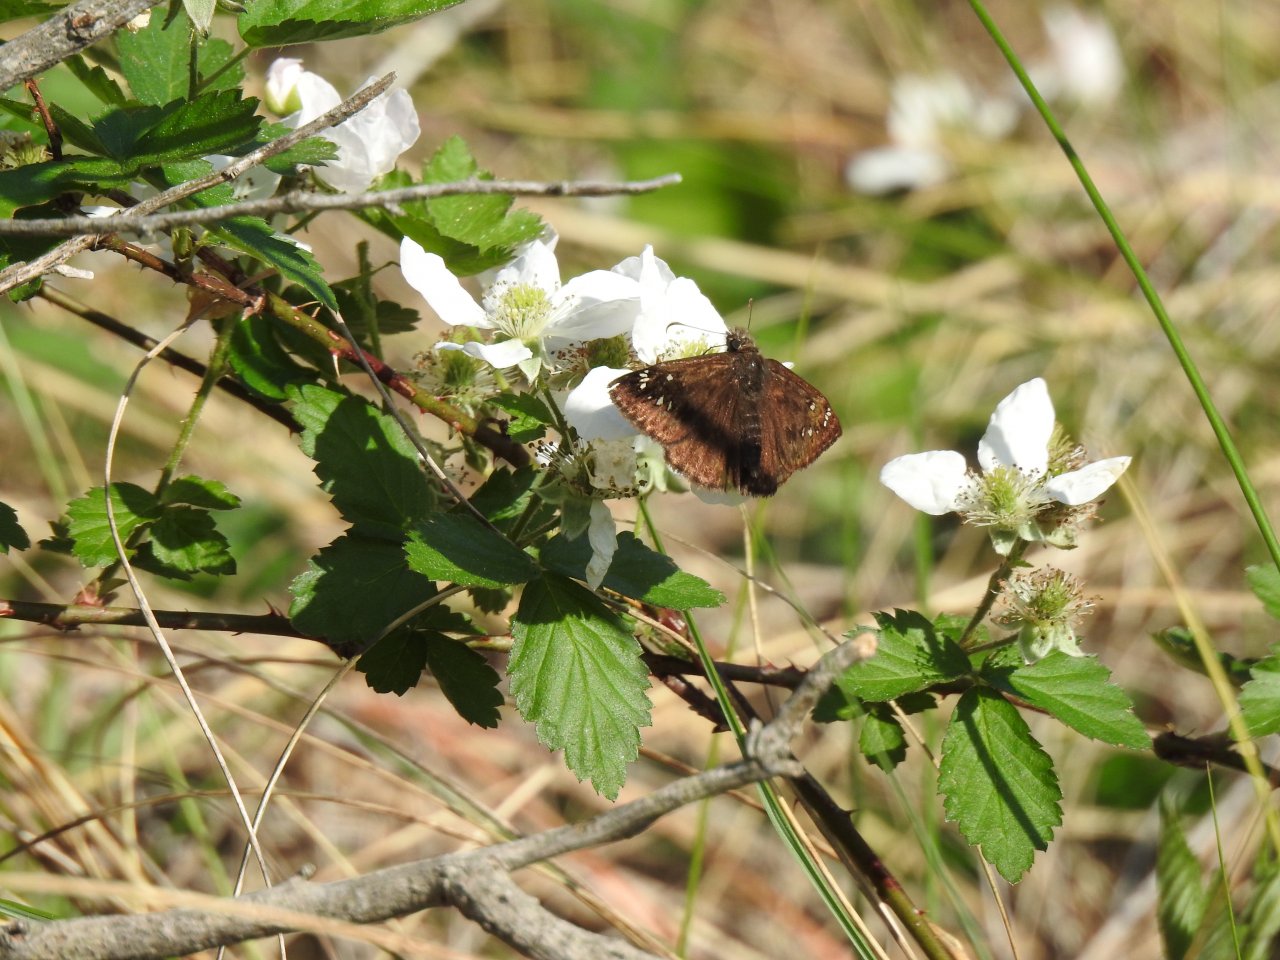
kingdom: Animalia
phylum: Arthropoda
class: Insecta
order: Lepidoptera
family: Hesperiidae
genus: Gesta
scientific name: Gesta
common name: Horace's Duskywing
